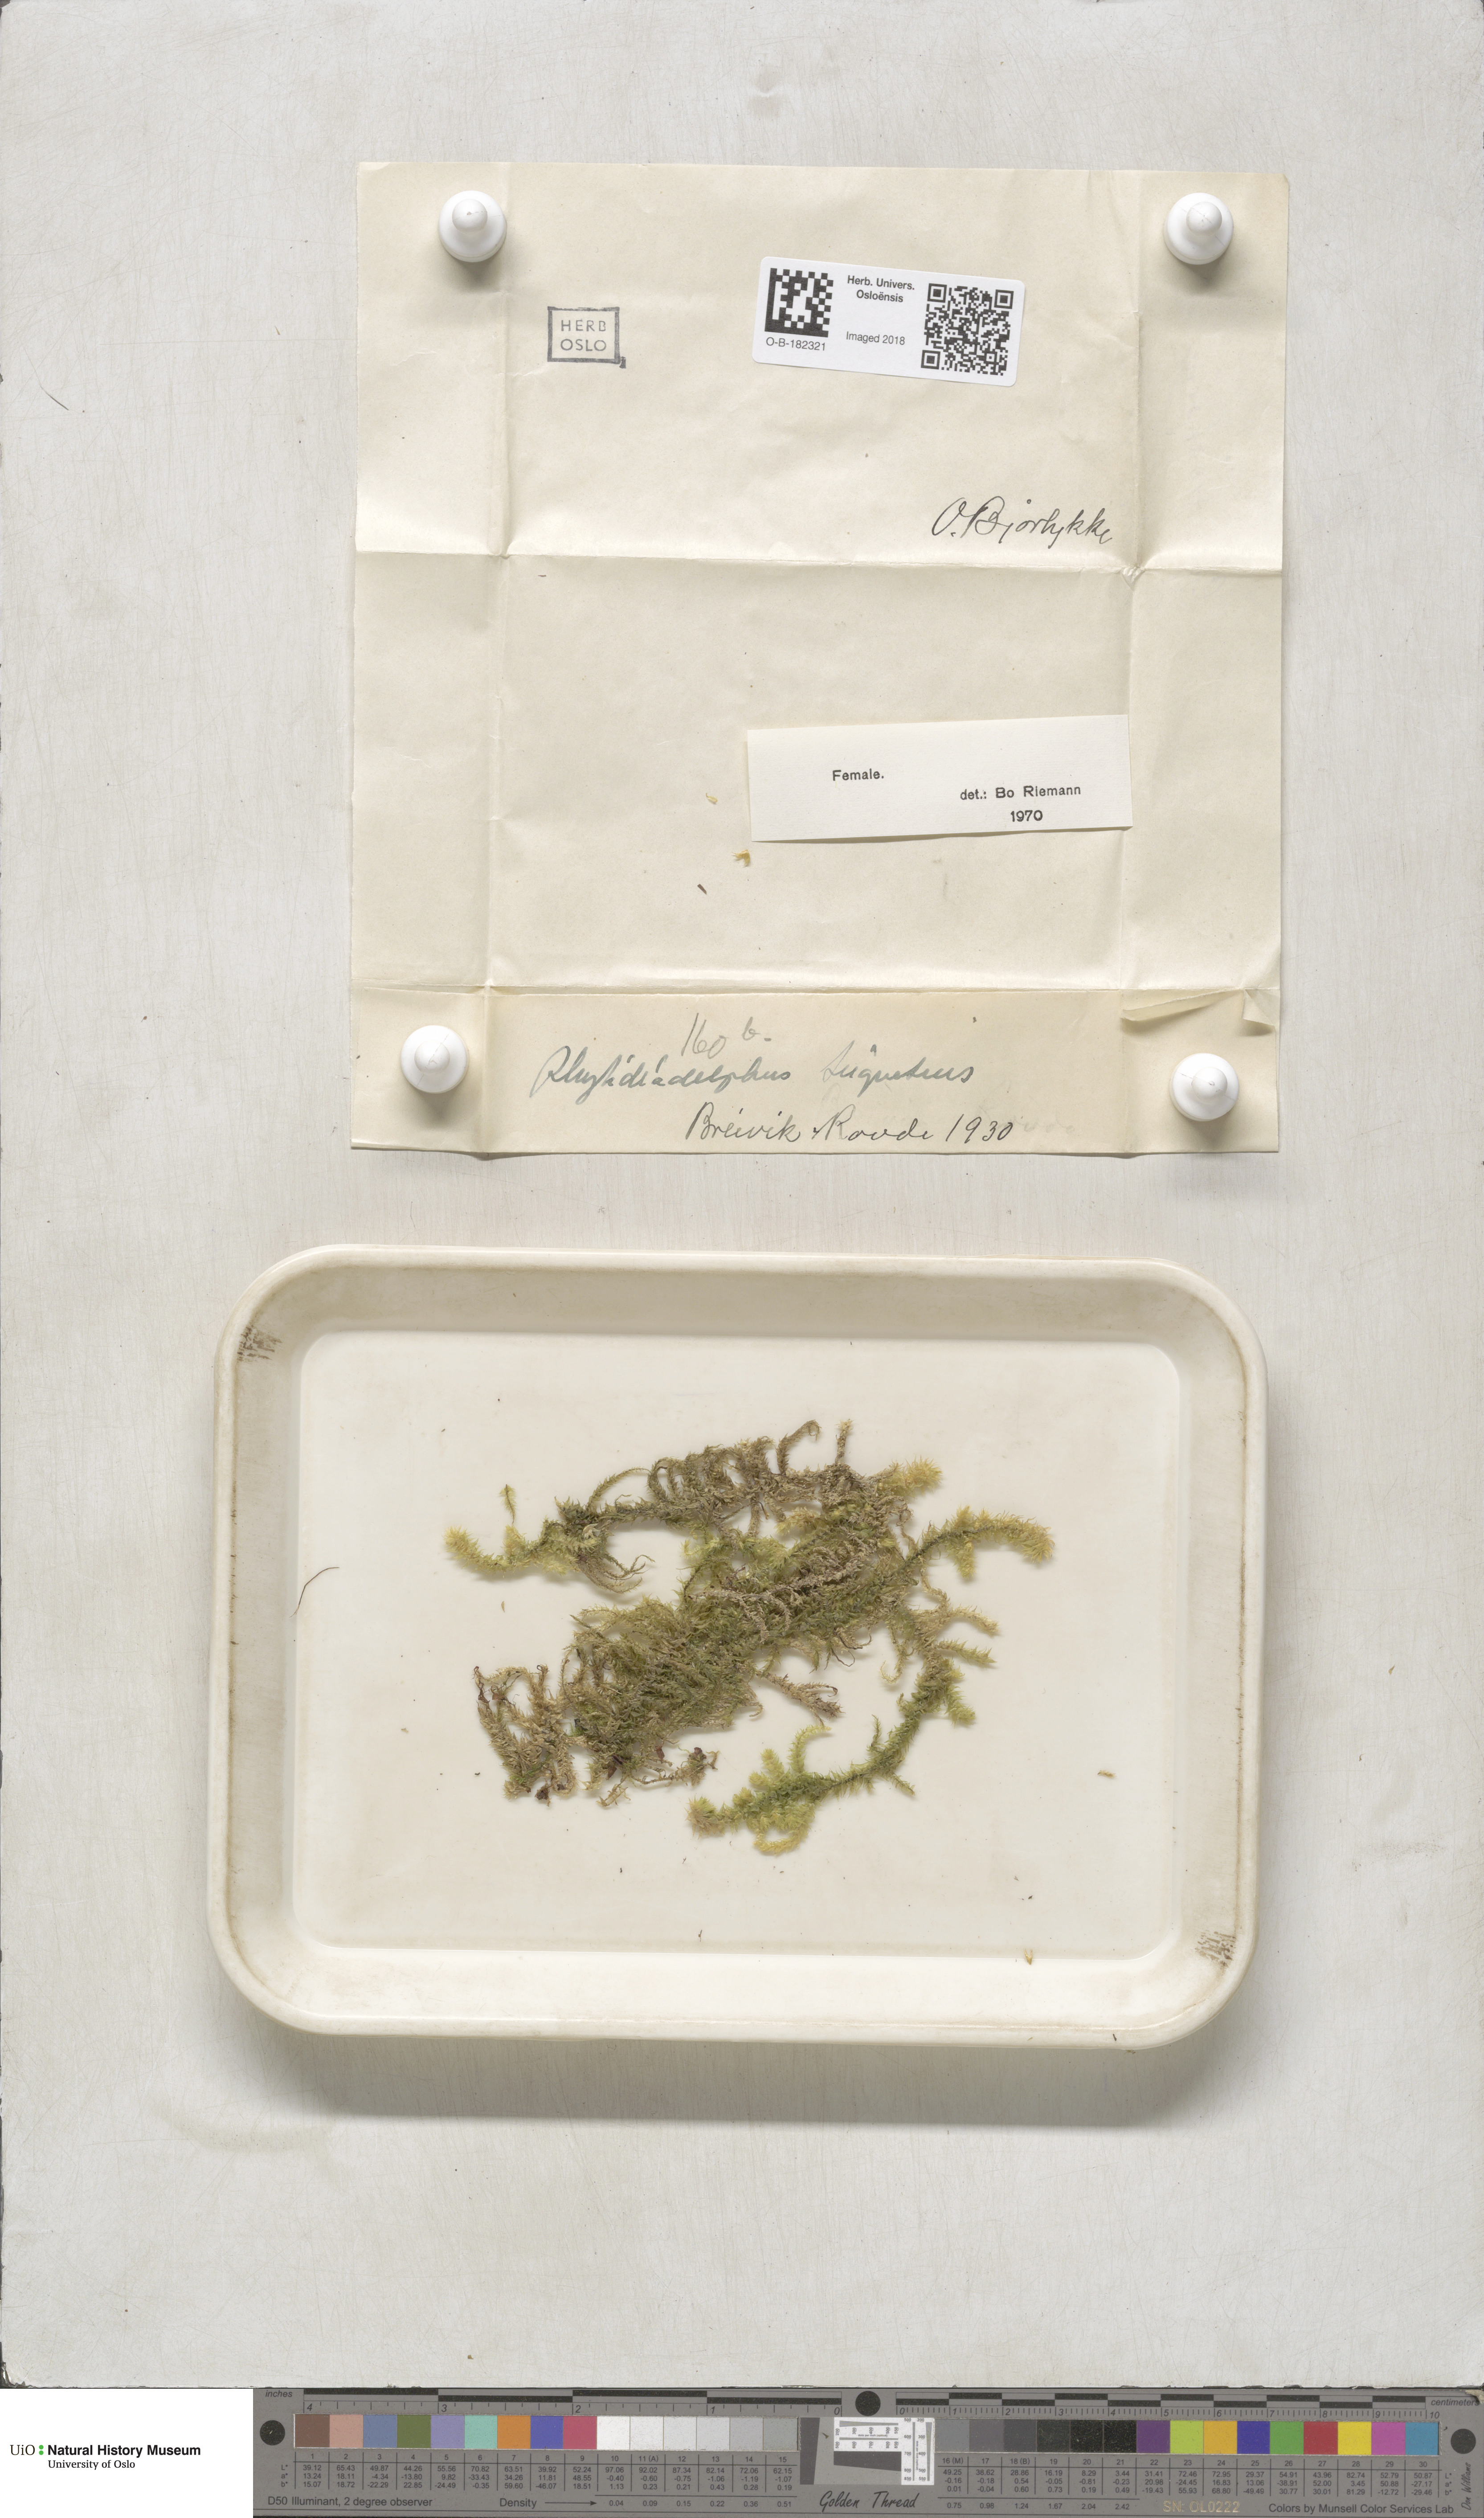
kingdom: Plantae
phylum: Bryophyta
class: Bryopsida
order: Hypnales
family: Hylocomiaceae
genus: Hylocomiadelphus
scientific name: Hylocomiadelphus triquetrus
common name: Rough goose neck moss
